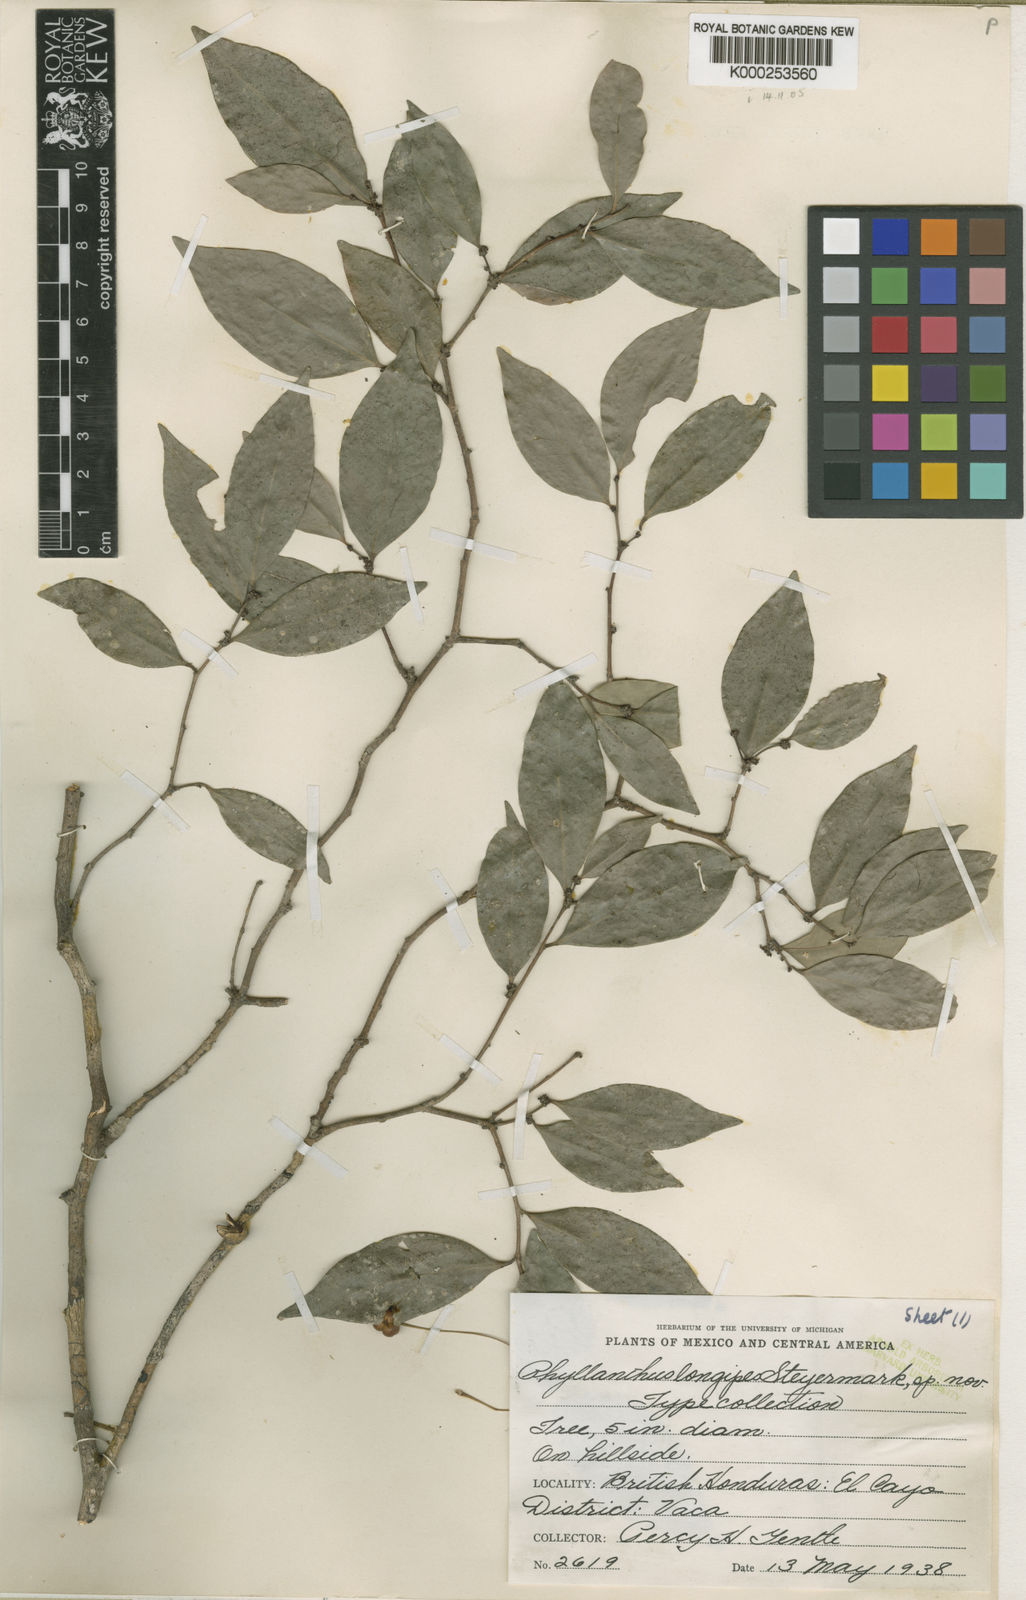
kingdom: Plantae
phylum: Tracheophyta
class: Magnoliopsida
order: Malpighiales
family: Euphorbiaceae
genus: Gymnanthes
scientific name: Gymnanthes belizensis
